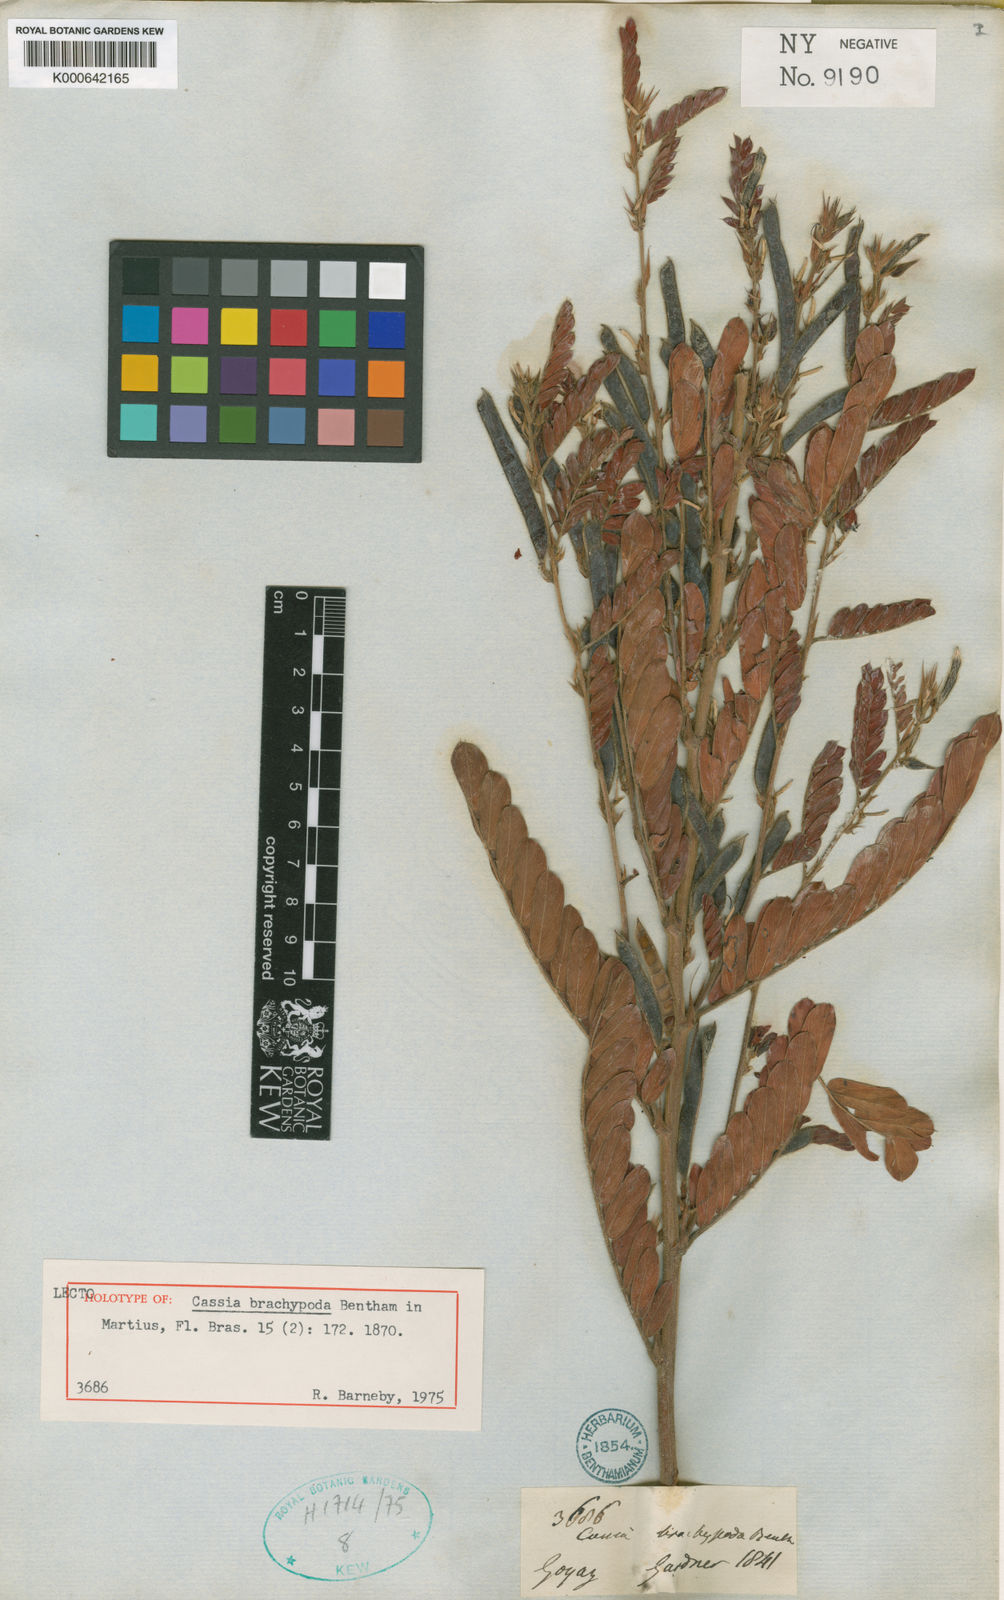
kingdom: Plantae
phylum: Tracheophyta
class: Magnoliopsida
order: Fabales
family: Fabaceae
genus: Chamaecrista
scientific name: Chamaecrista nictitans
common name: Sensitive cassia
